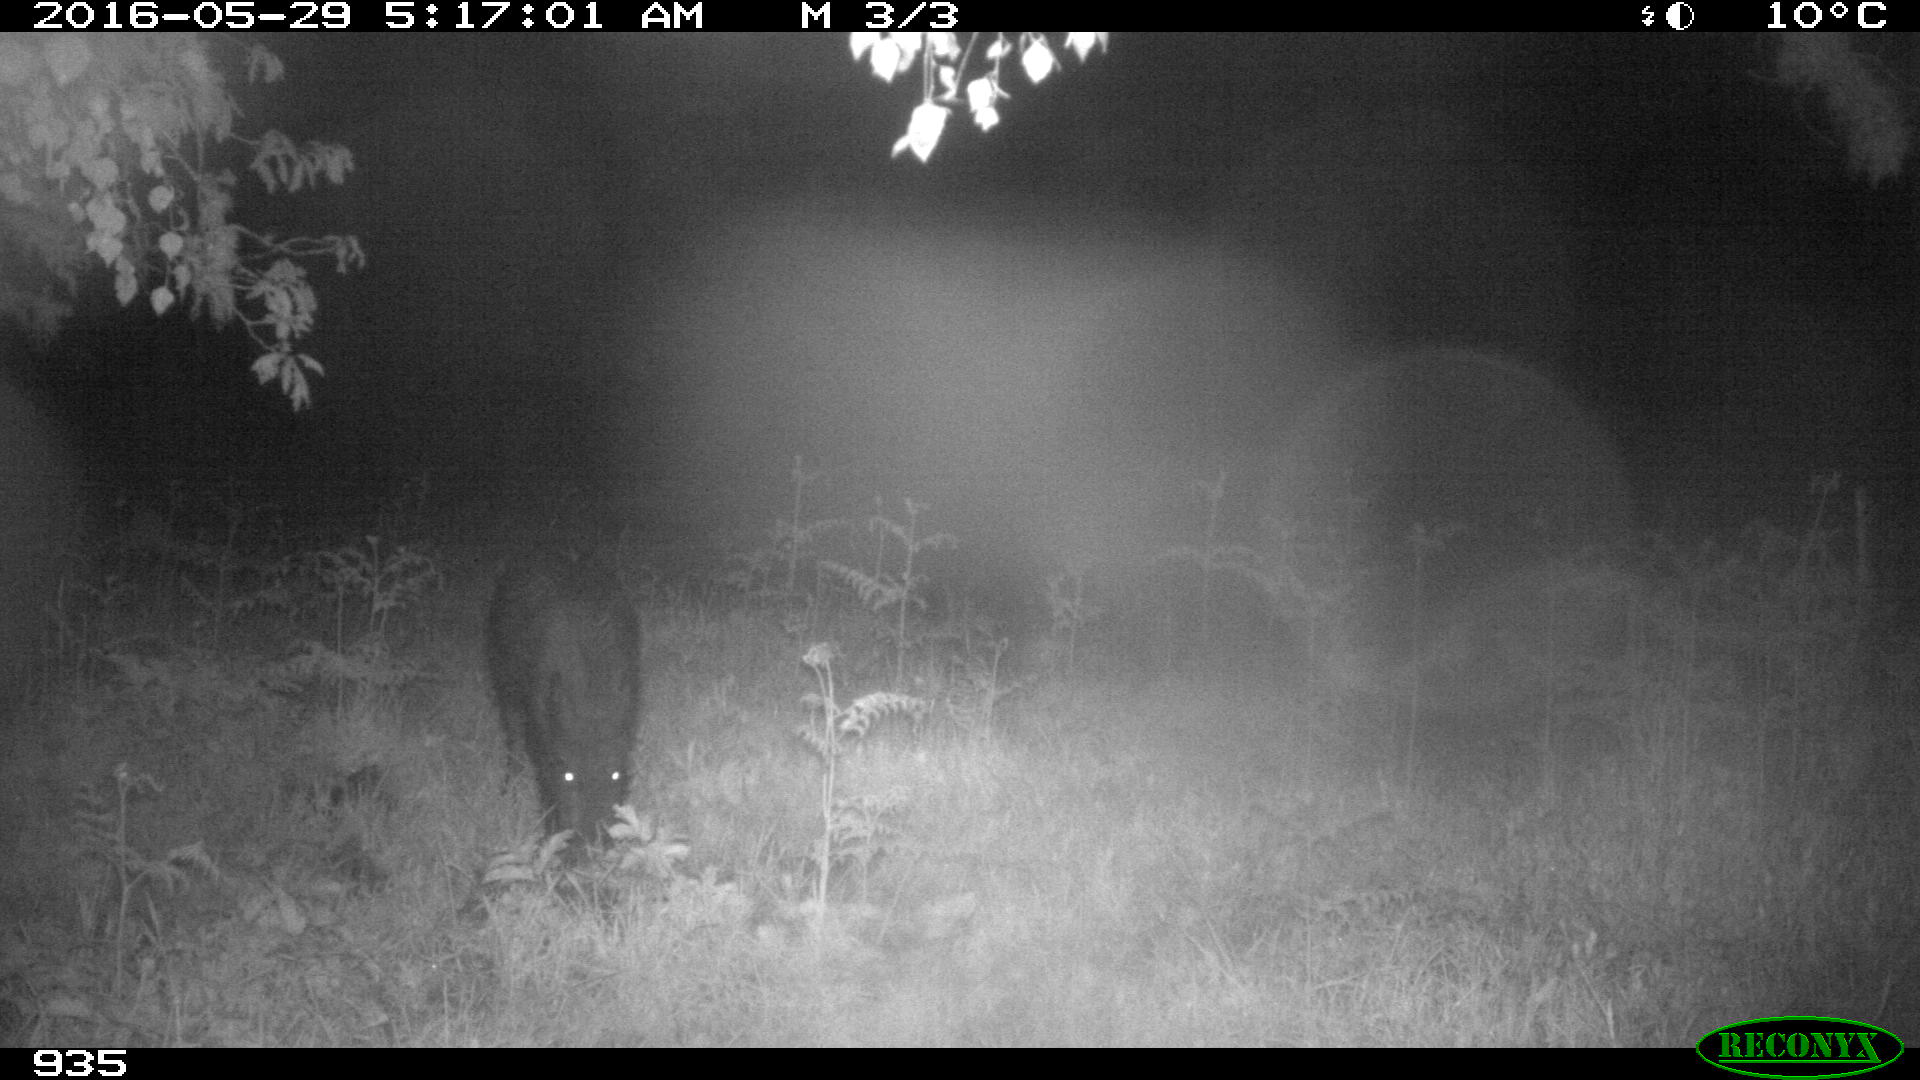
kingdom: Animalia
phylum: Chordata
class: Mammalia
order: Artiodactyla
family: Suidae
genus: Sus
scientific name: Sus scrofa
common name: Wild boar
